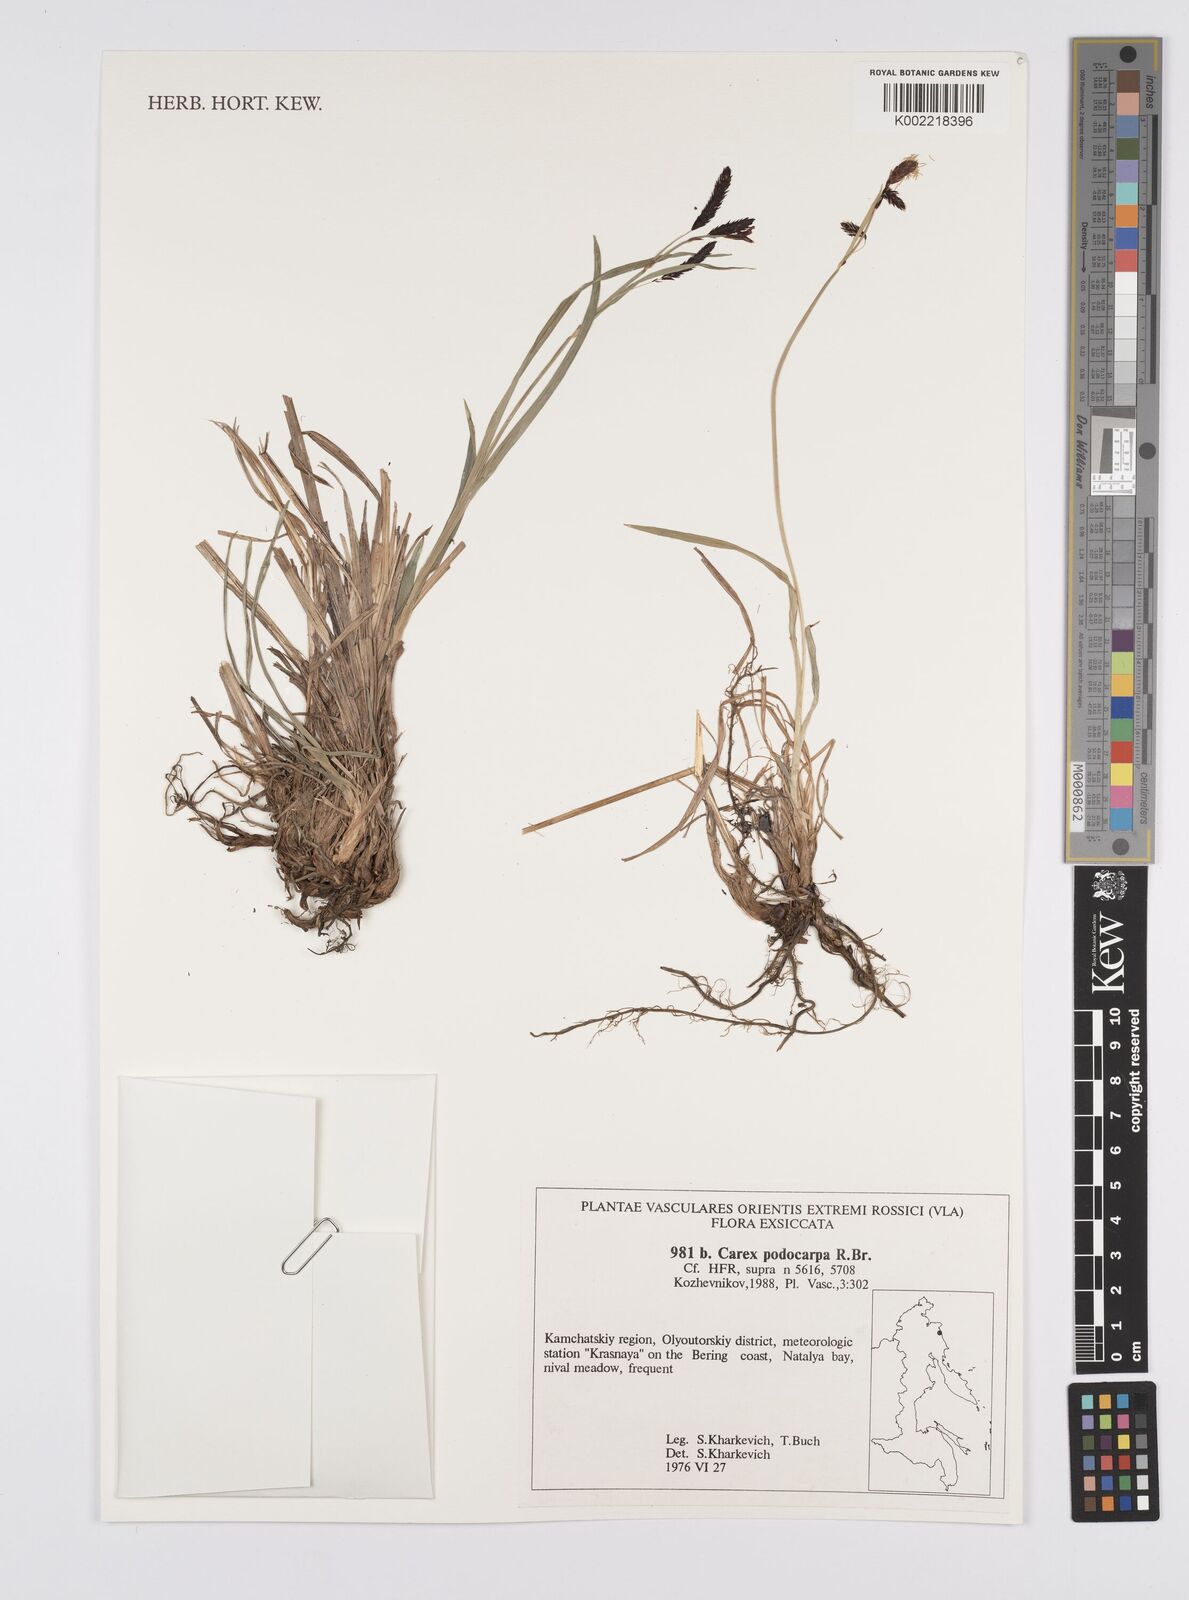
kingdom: Plantae
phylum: Tracheophyta
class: Liliopsida
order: Poales
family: Cyperaceae
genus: Carex
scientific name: Carex podocarpa
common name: Alpine sedge
